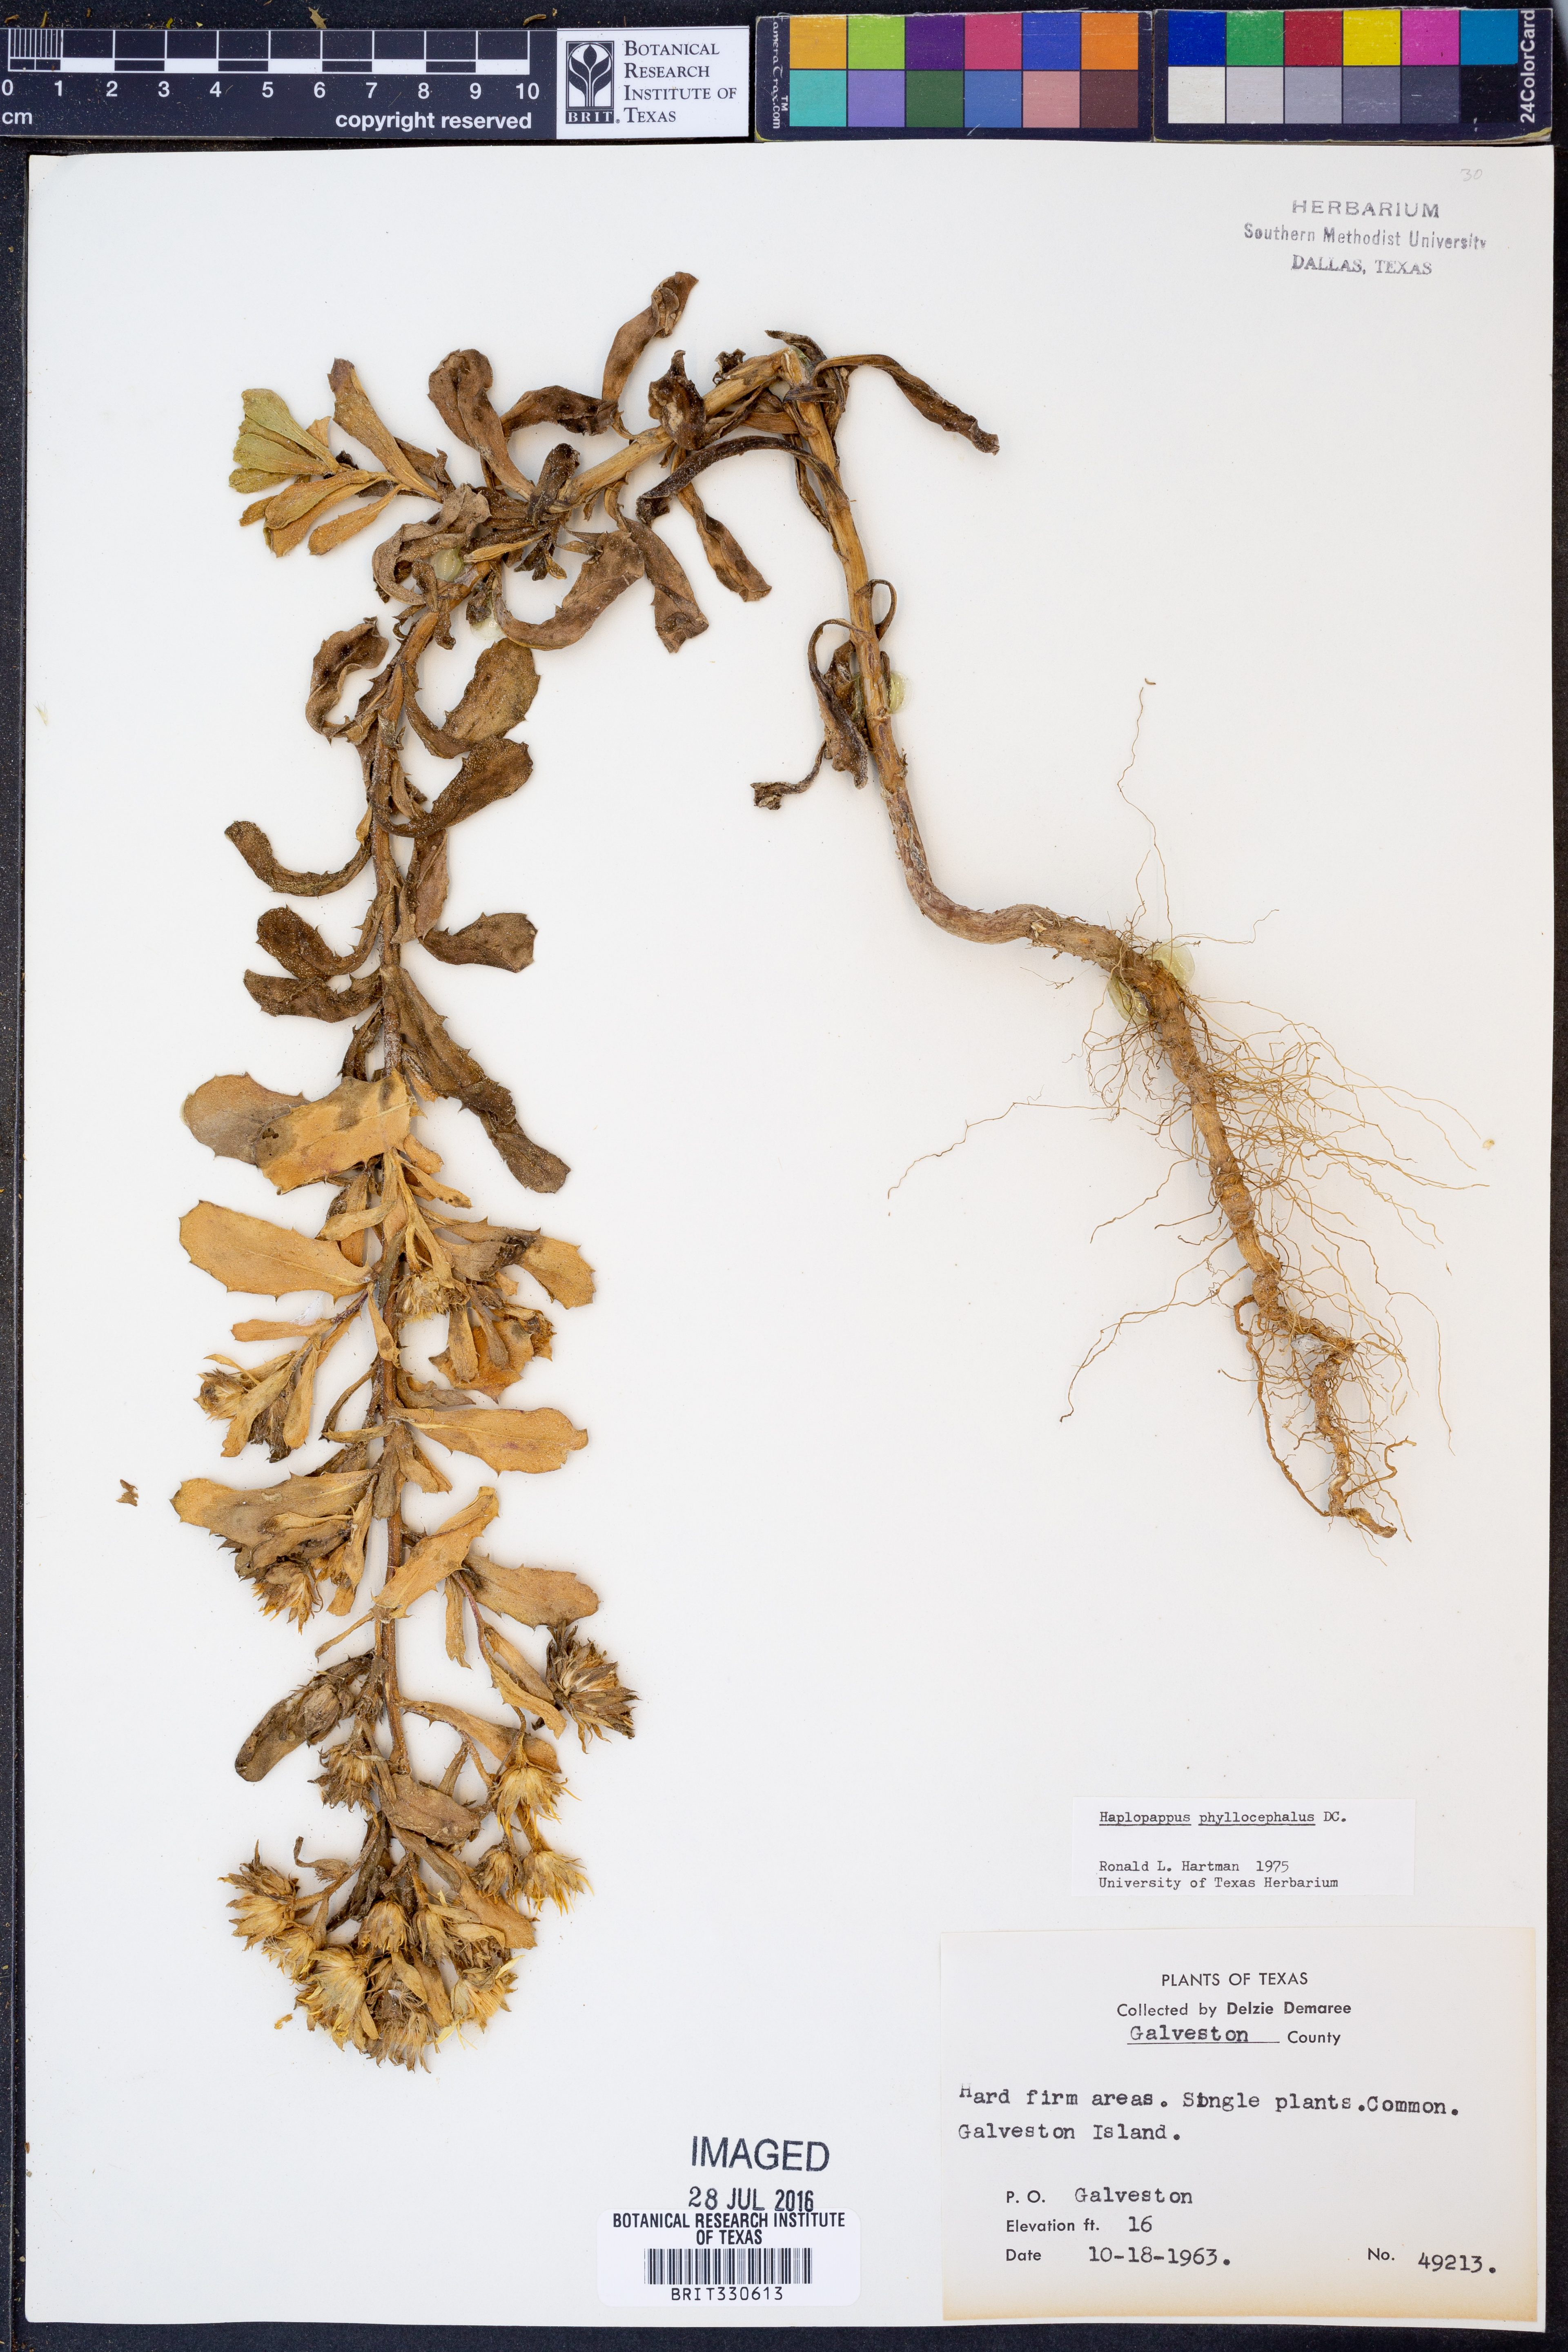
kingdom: Plantae
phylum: Tracheophyta
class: Magnoliopsida
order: Asterales
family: Asteraceae
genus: Rayjacksonia
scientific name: Rayjacksonia phyllocephala
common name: Gulf coast camphor daisy
